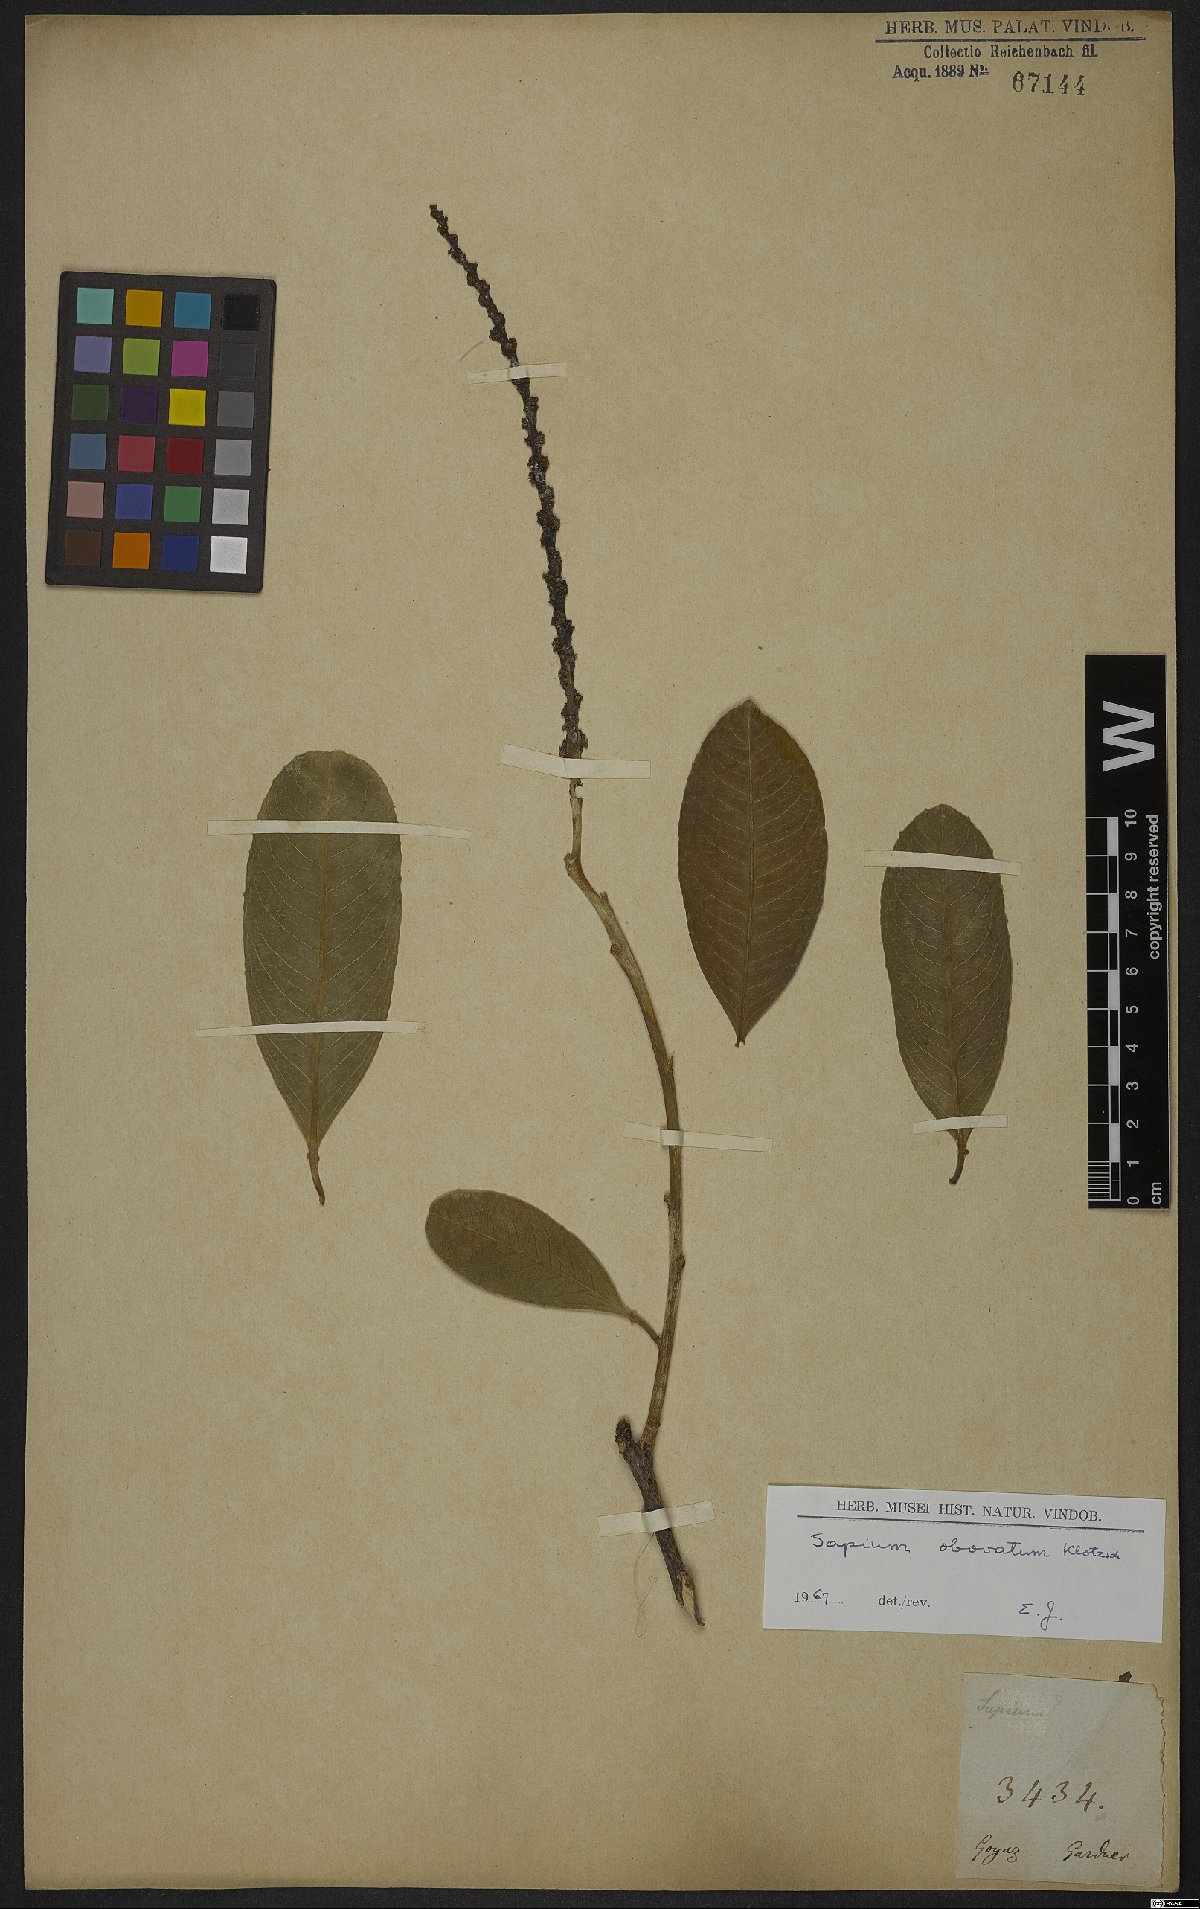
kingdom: Plantae
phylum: Tracheophyta
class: Magnoliopsida
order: Malpighiales
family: Euphorbiaceae
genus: Sapium
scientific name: Sapium obovatum
